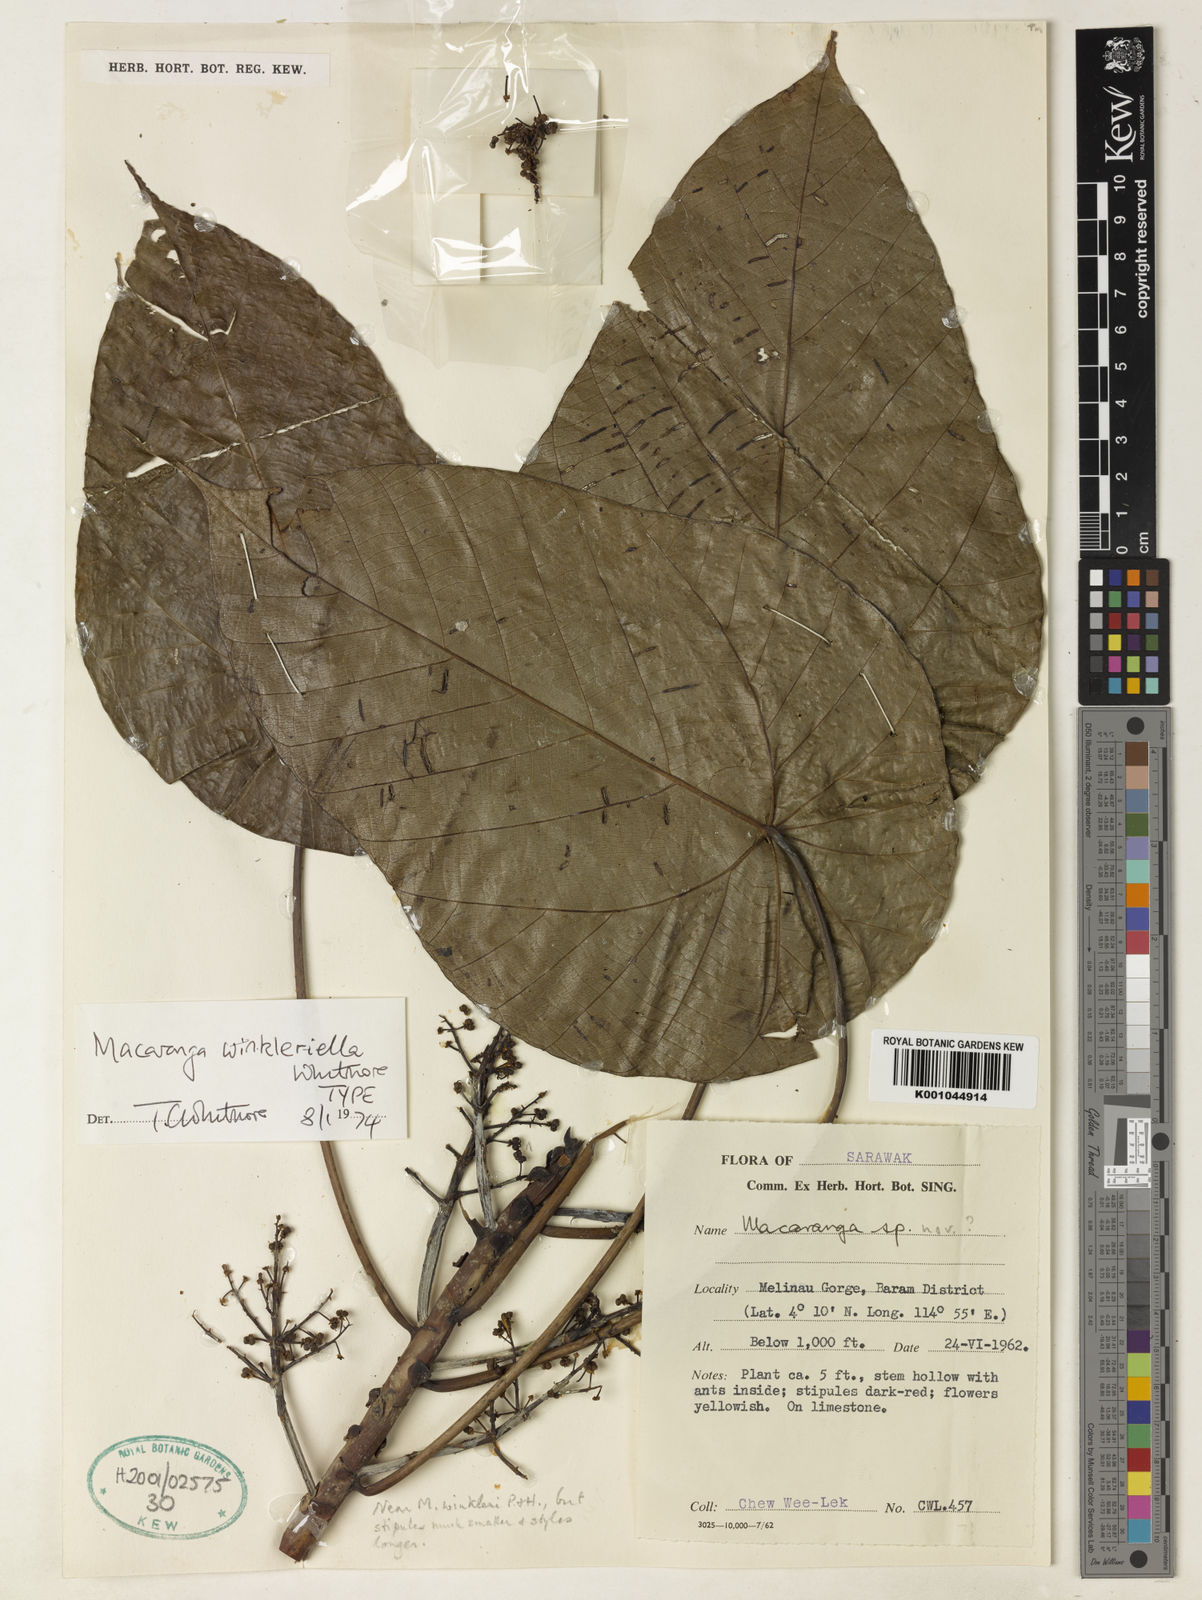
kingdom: Plantae
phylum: Tracheophyta
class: Magnoliopsida
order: Malpighiales
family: Euphorbiaceae
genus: Macaranga
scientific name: Macaranga winkleriella
